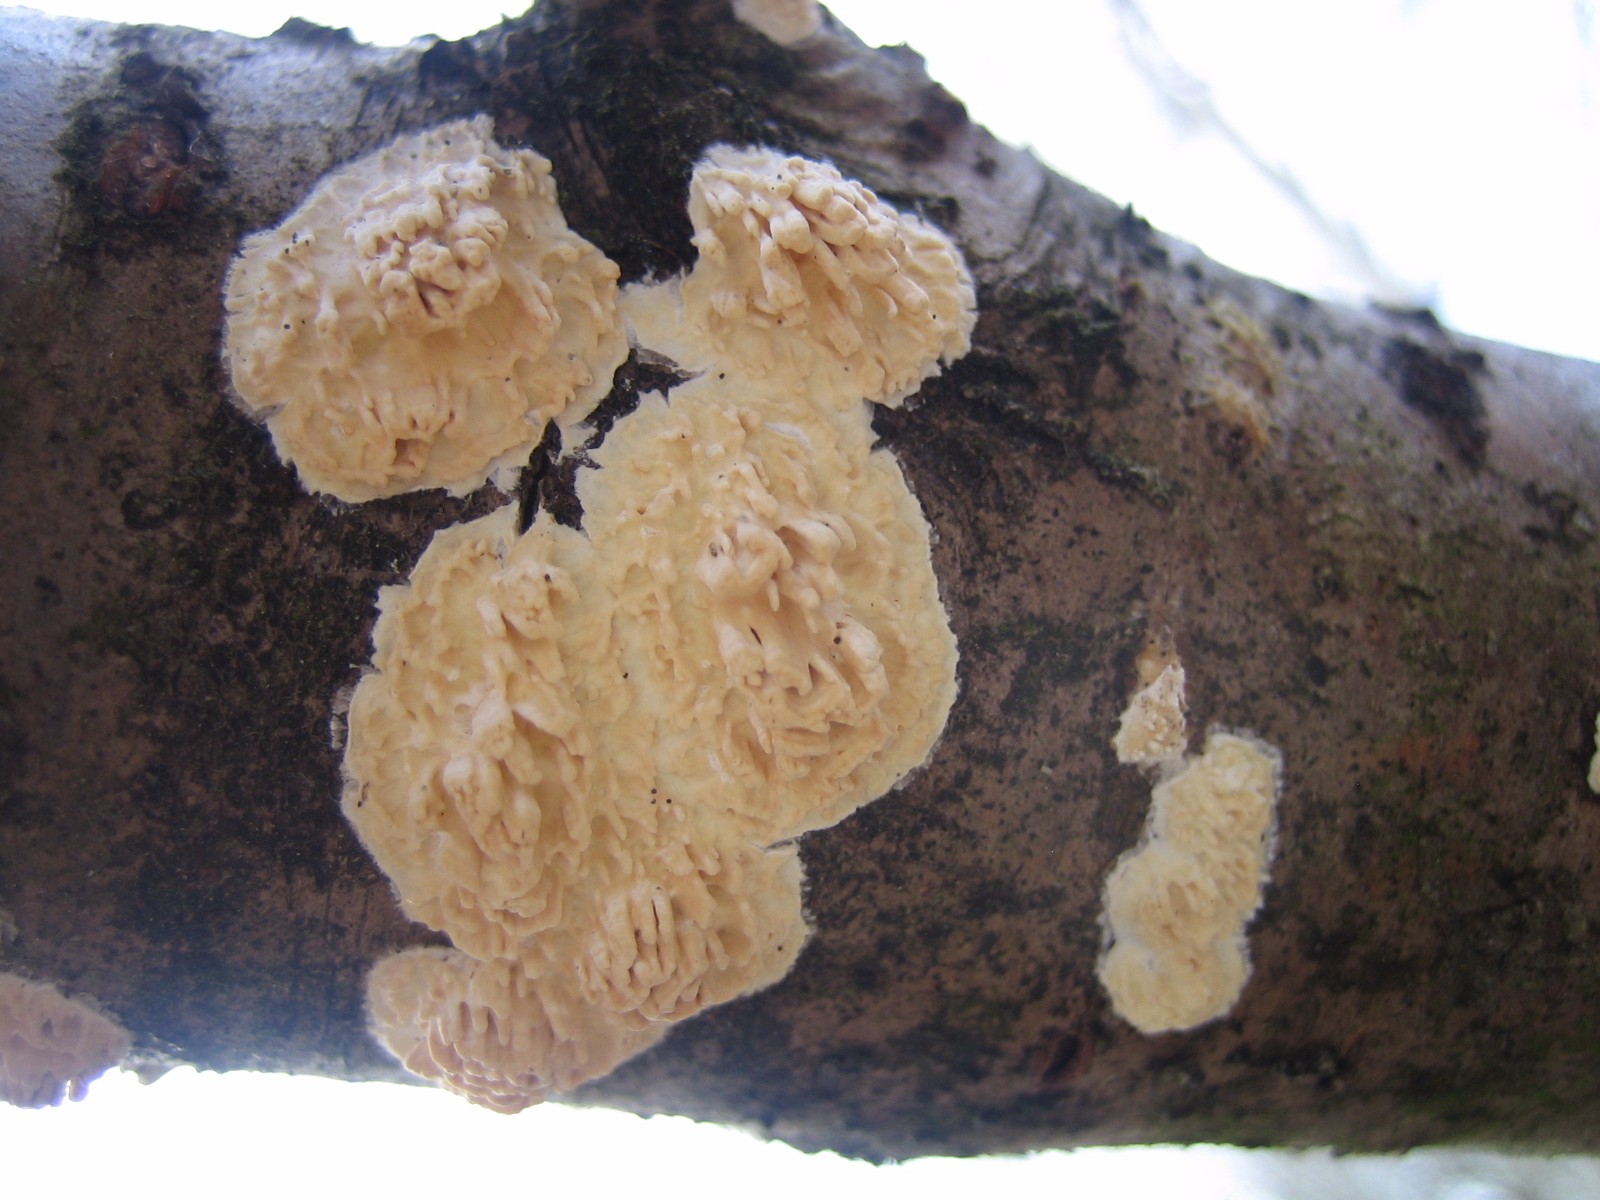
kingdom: Fungi
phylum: Basidiomycota
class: Agaricomycetes
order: Hymenochaetales
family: Schizoporaceae
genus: Xylodon
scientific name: Xylodon radula
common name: grovtandet kalkskind
